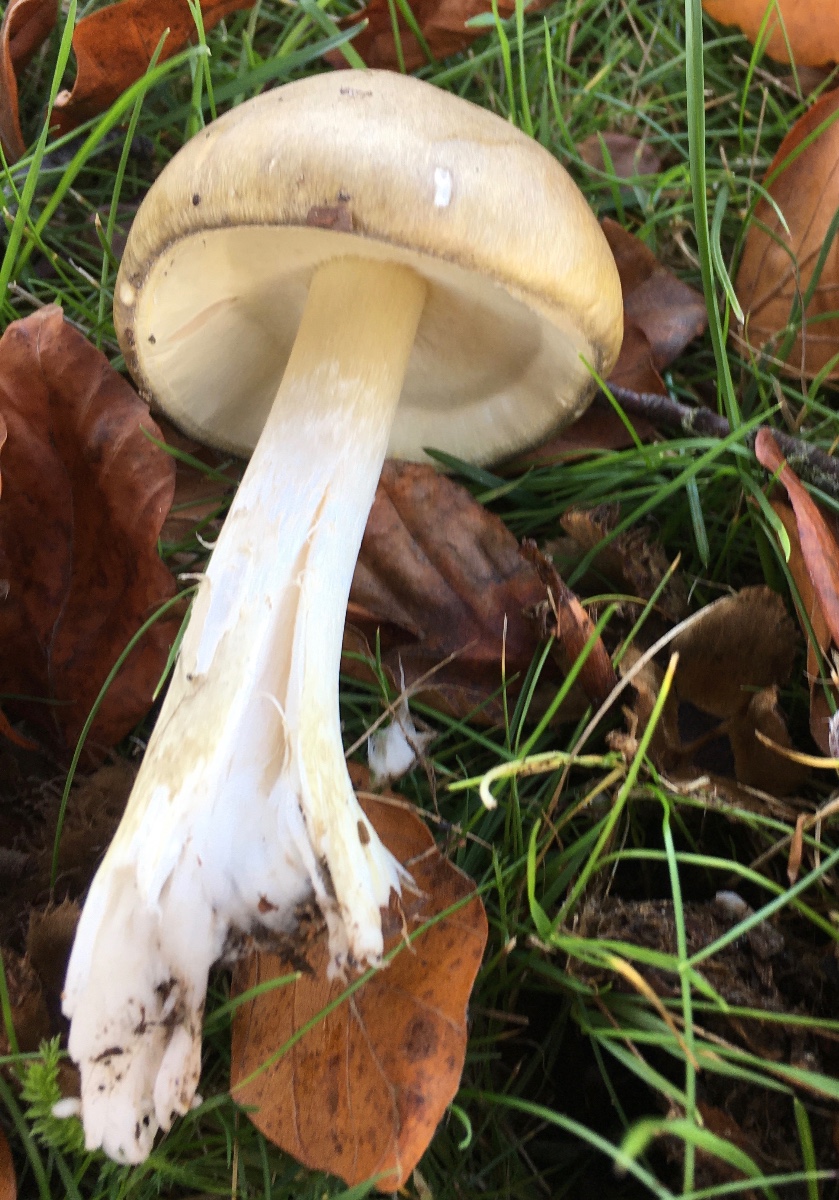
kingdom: Fungi
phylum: Basidiomycota
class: Agaricomycetes
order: Agaricales
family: Amanitaceae
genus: Amanita
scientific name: Amanita phalloides
